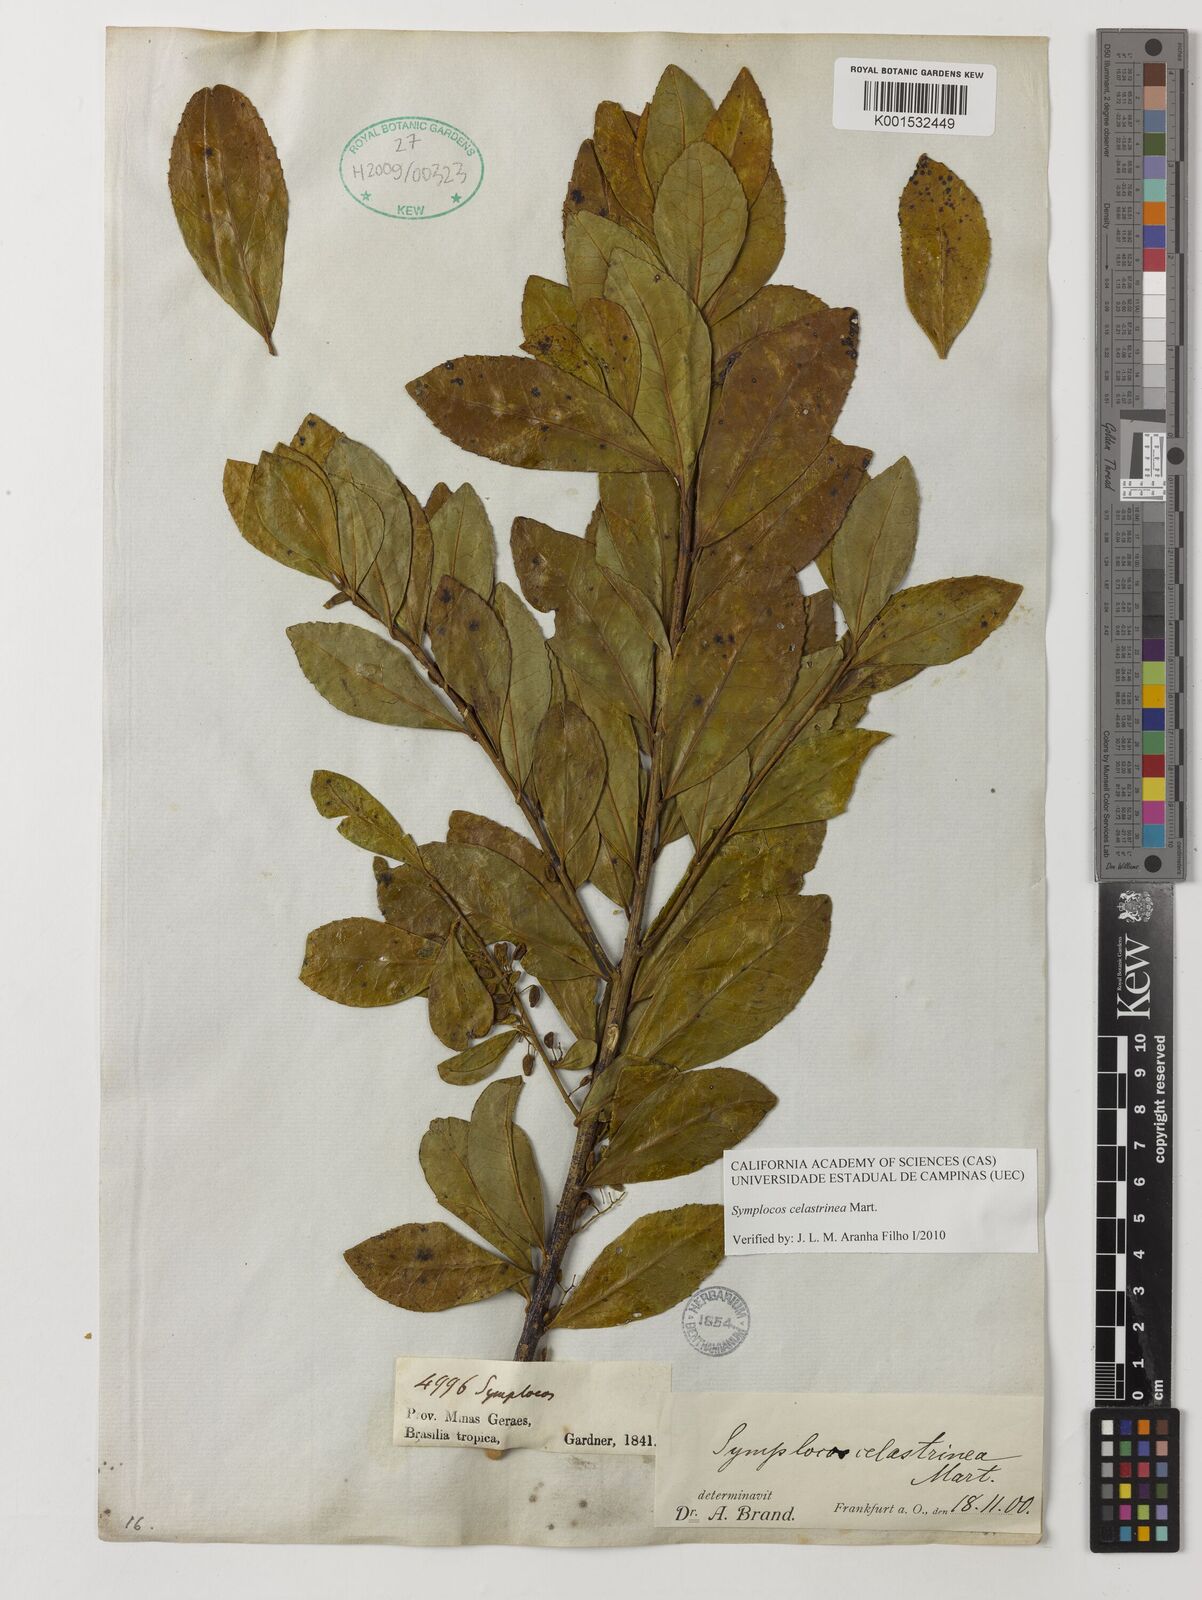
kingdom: Plantae
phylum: Tracheophyta
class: Magnoliopsida
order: Ericales
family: Symplocaceae
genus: Symplocos
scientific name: Symplocos celastrinea
